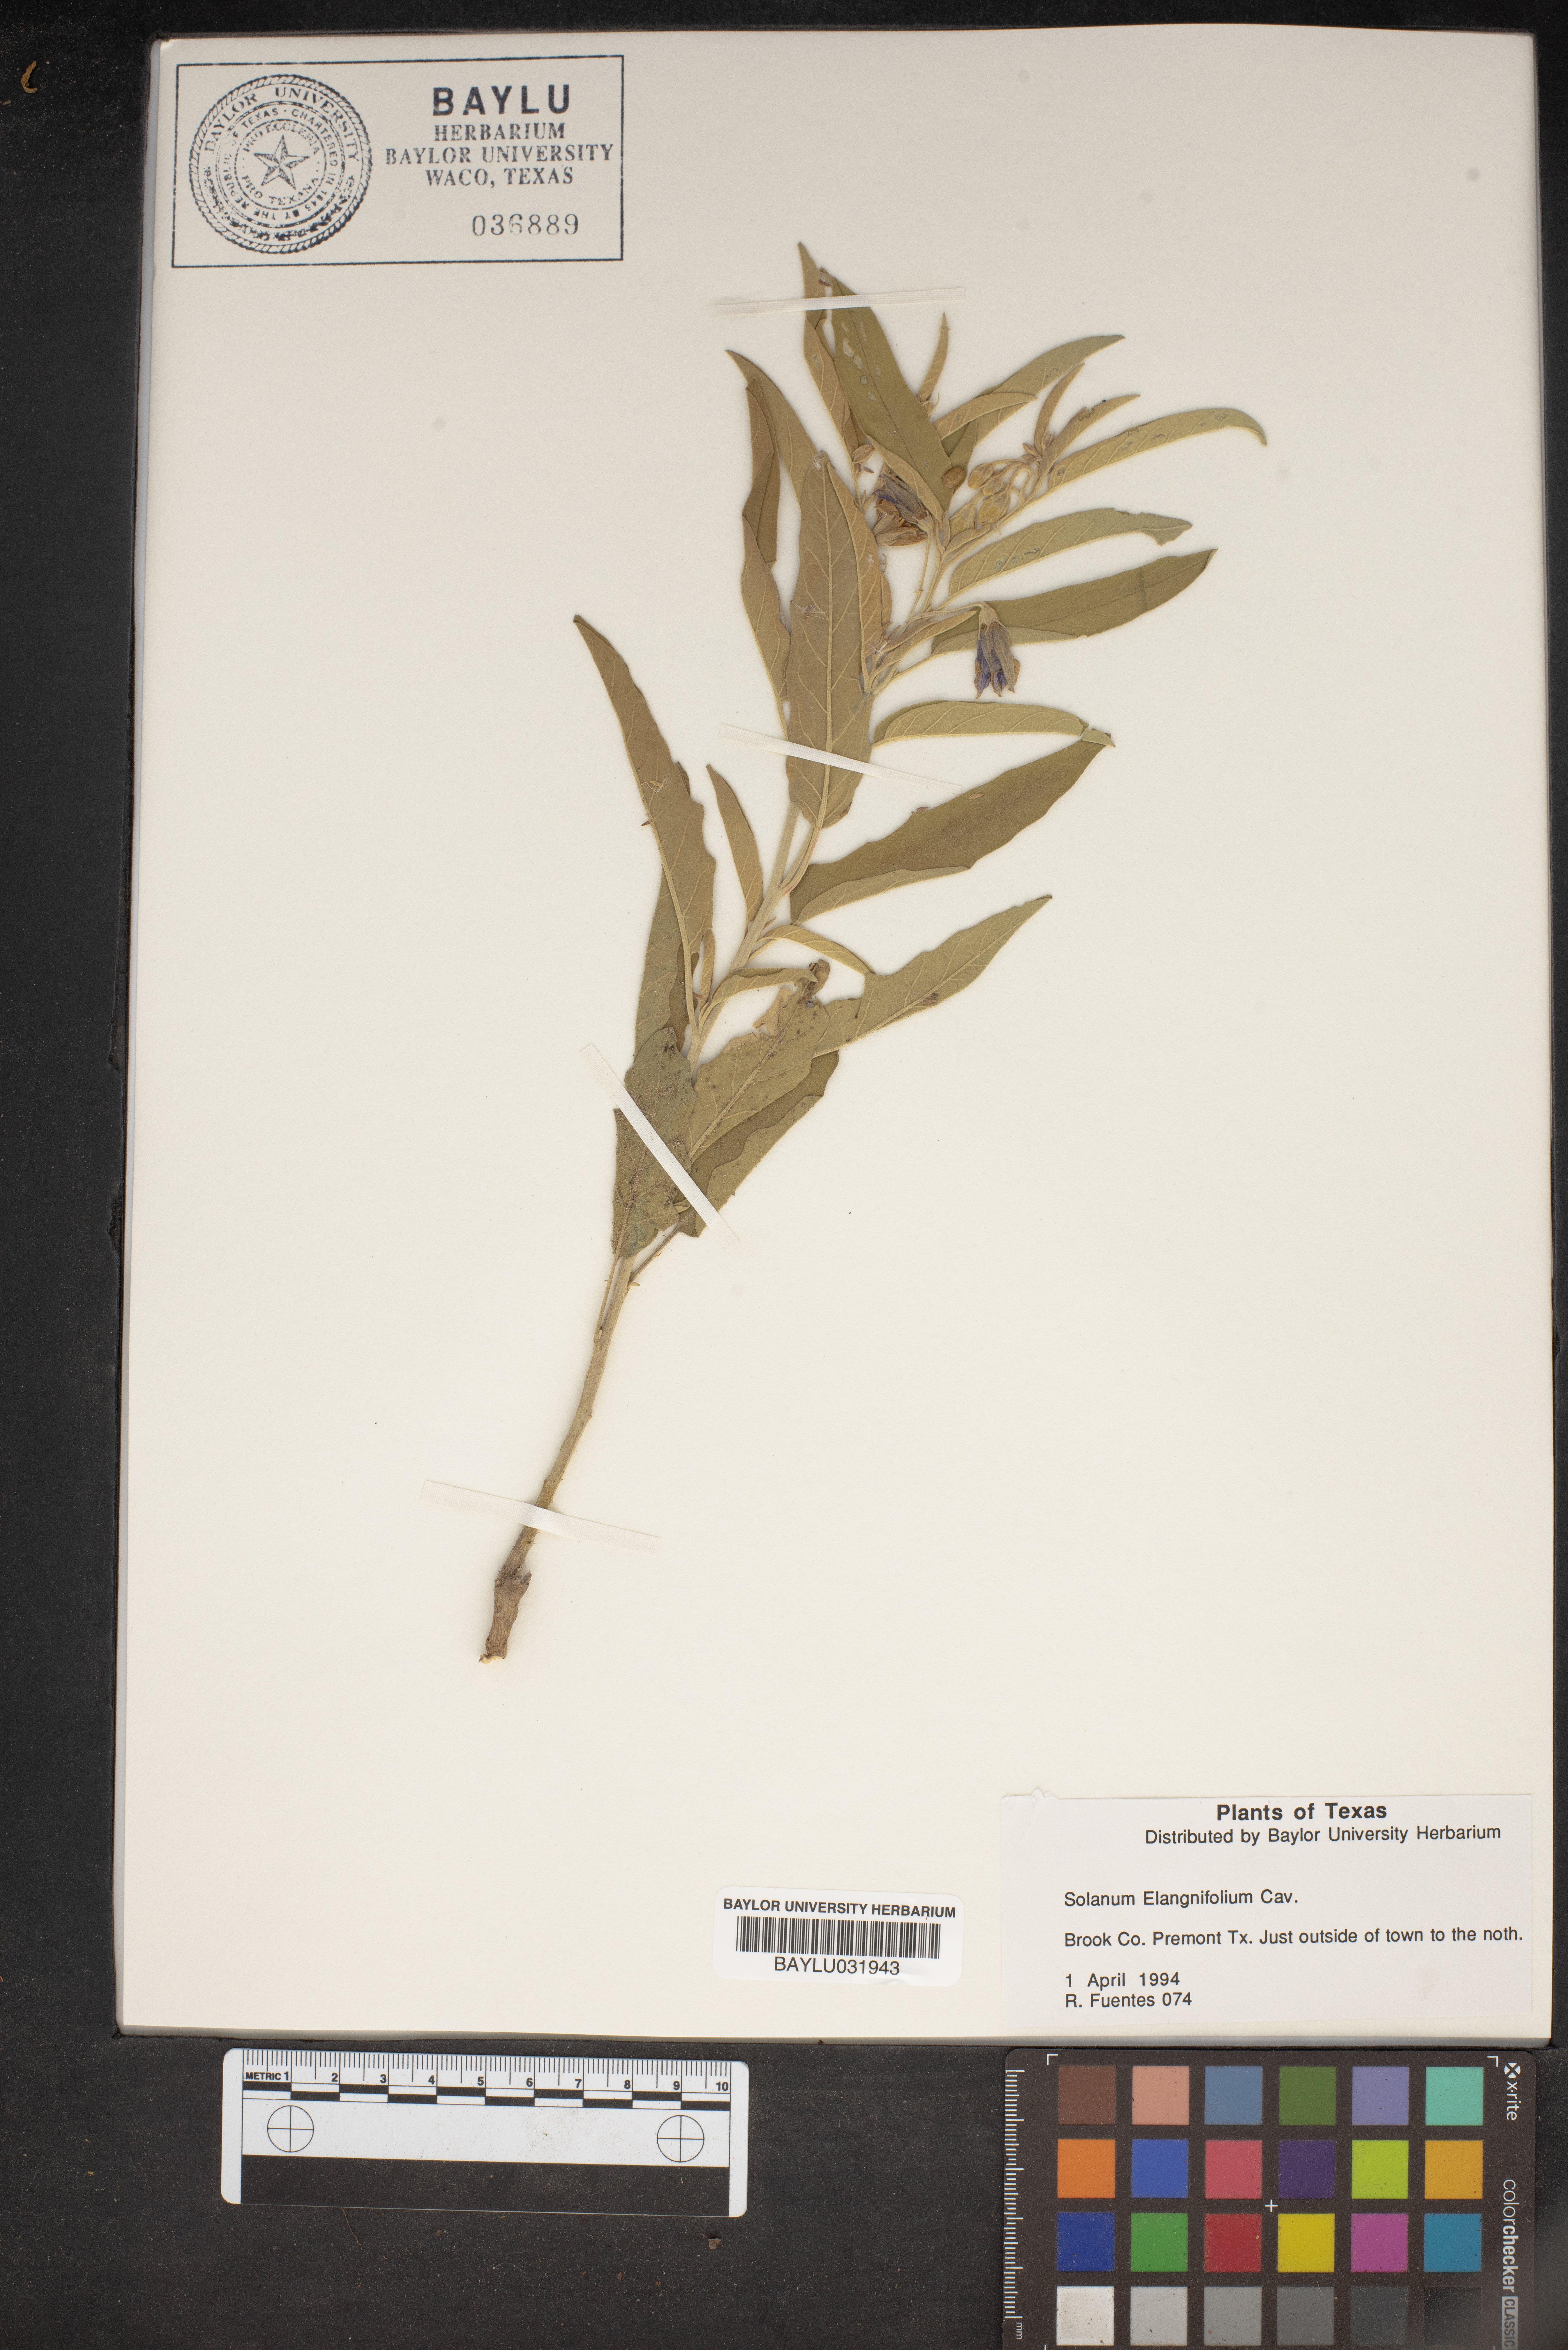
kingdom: Plantae
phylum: Tracheophyta
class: Magnoliopsida
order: Solanales
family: Solanaceae
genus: Solanum
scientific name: Solanum elaeagnifolium
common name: Silverleaf nightshade
